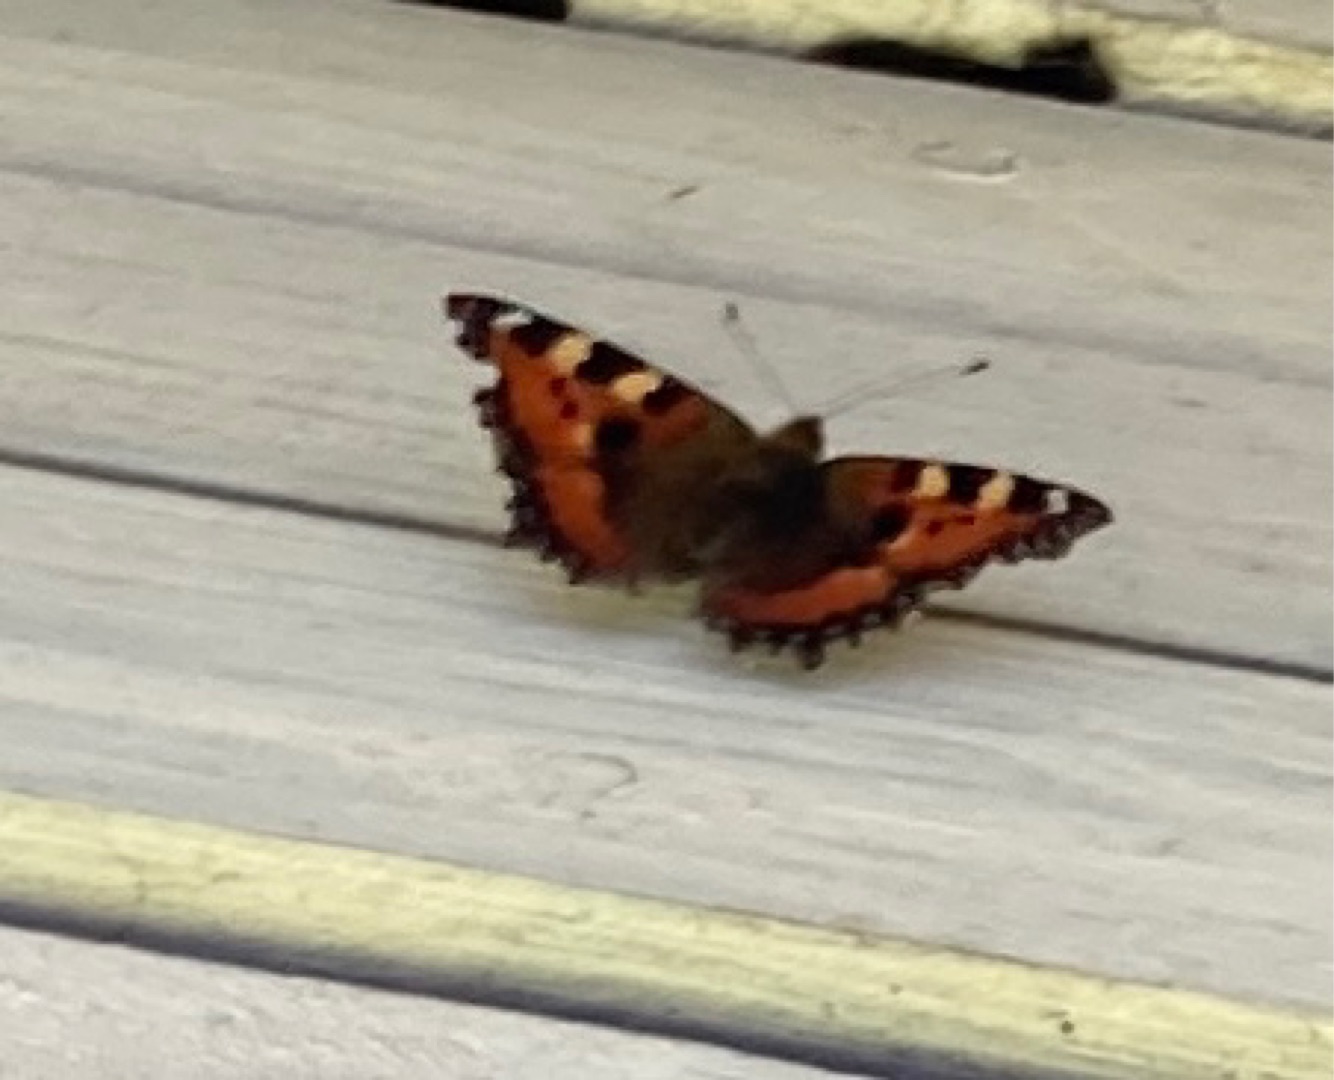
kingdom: Animalia
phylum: Arthropoda
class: Insecta
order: Lepidoptera
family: Nymphalidae
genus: Aglais
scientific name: Aglais urticae
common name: Nældens takvinge
